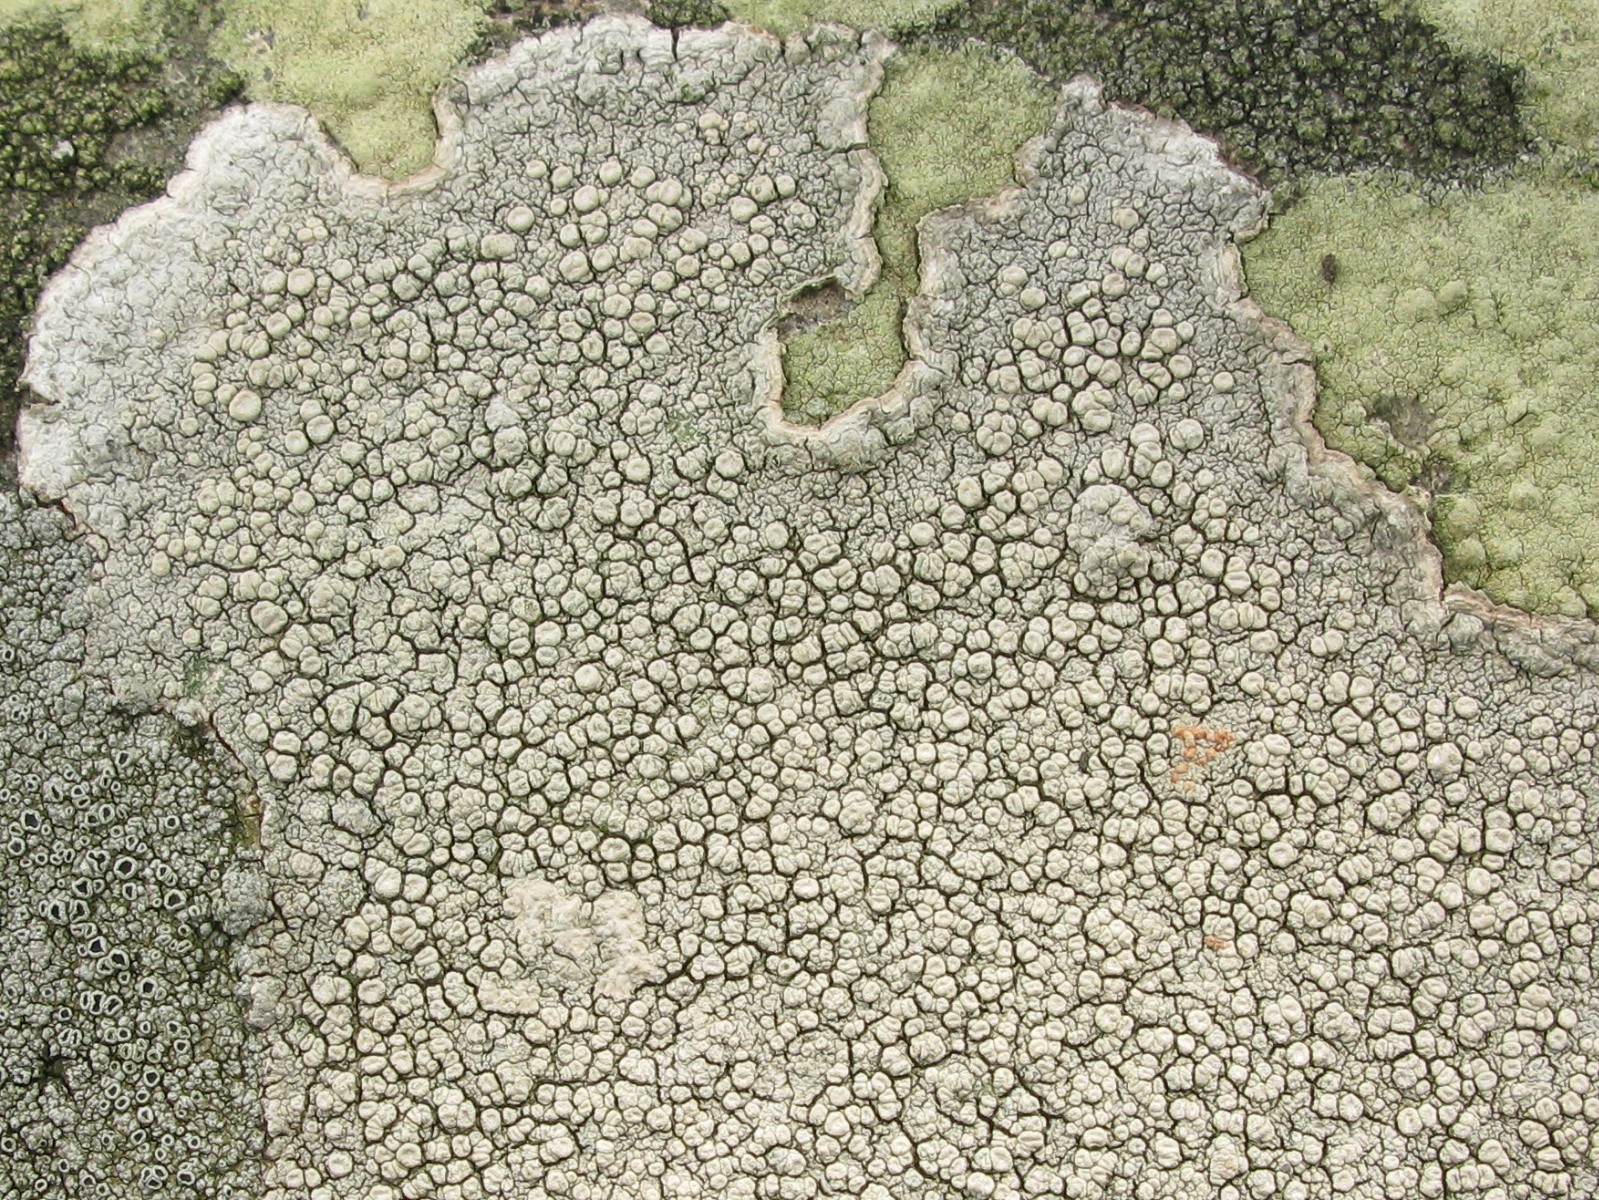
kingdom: Fungi
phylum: Ascomycota
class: Lecanoromycetes
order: Pertusariales
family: Ochrolechiaceae
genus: Ochrolechia
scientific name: Ochrolechia parella
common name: almindelig blegskivelav
